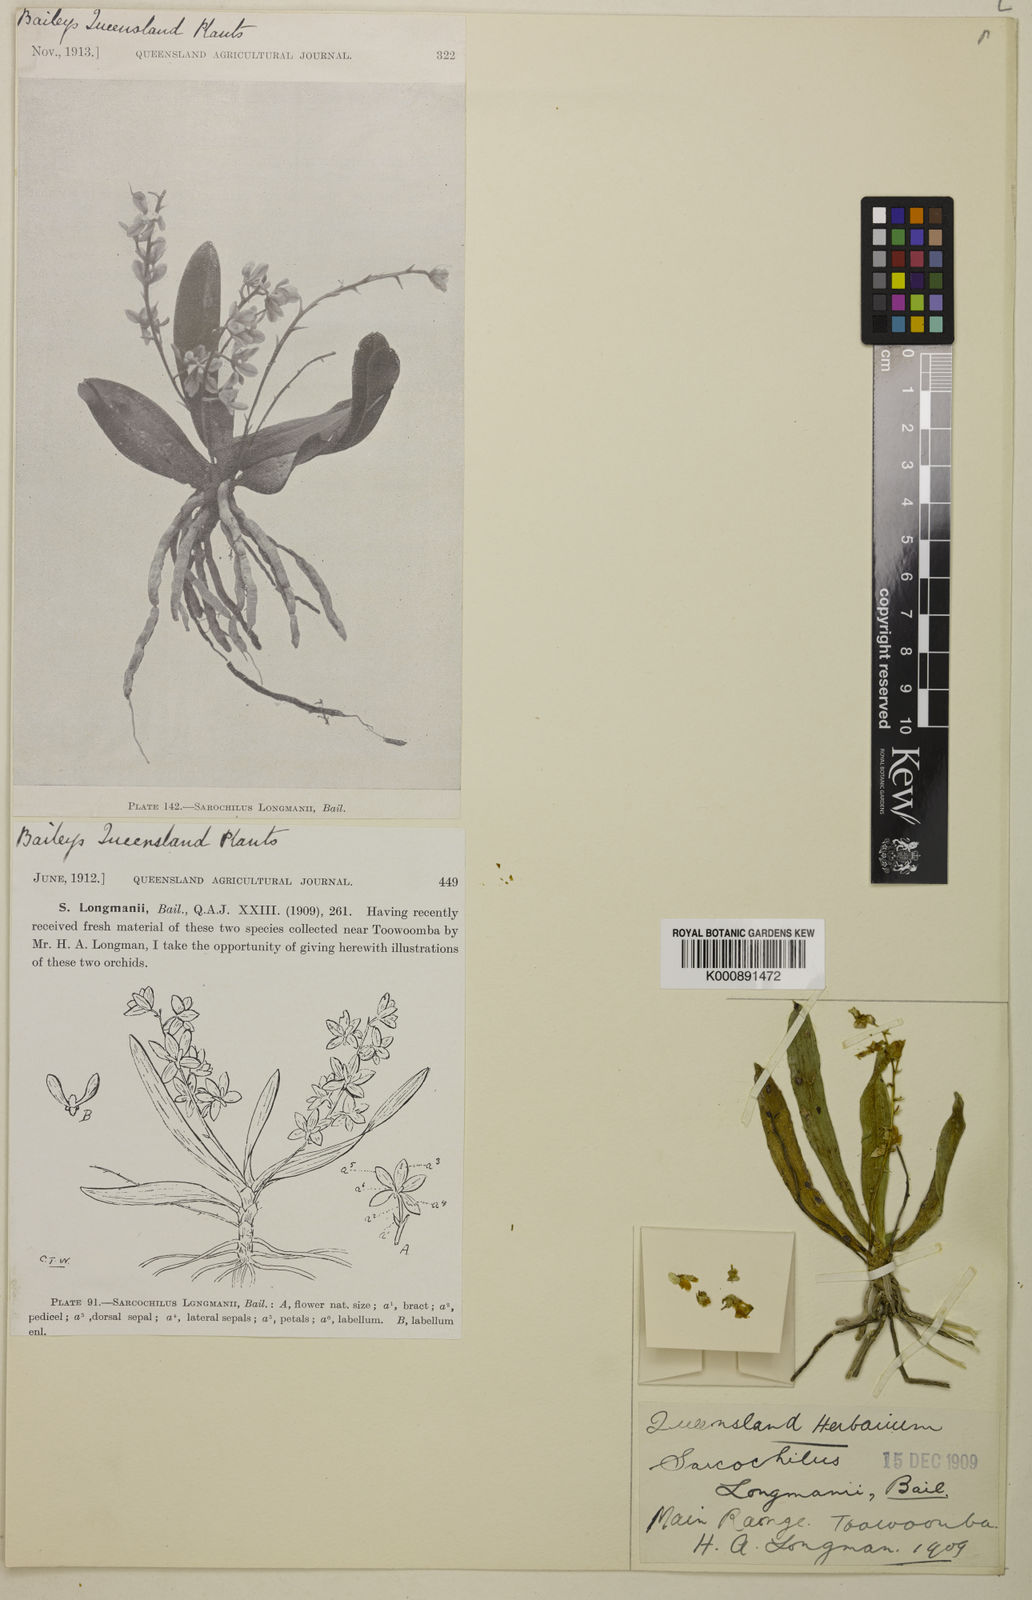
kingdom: Plantae
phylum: Tracheophyta
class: Liliopsida
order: Asparagales
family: Orchidaceae
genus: Sarcochilus
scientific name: Sarcochilus weinthalii
